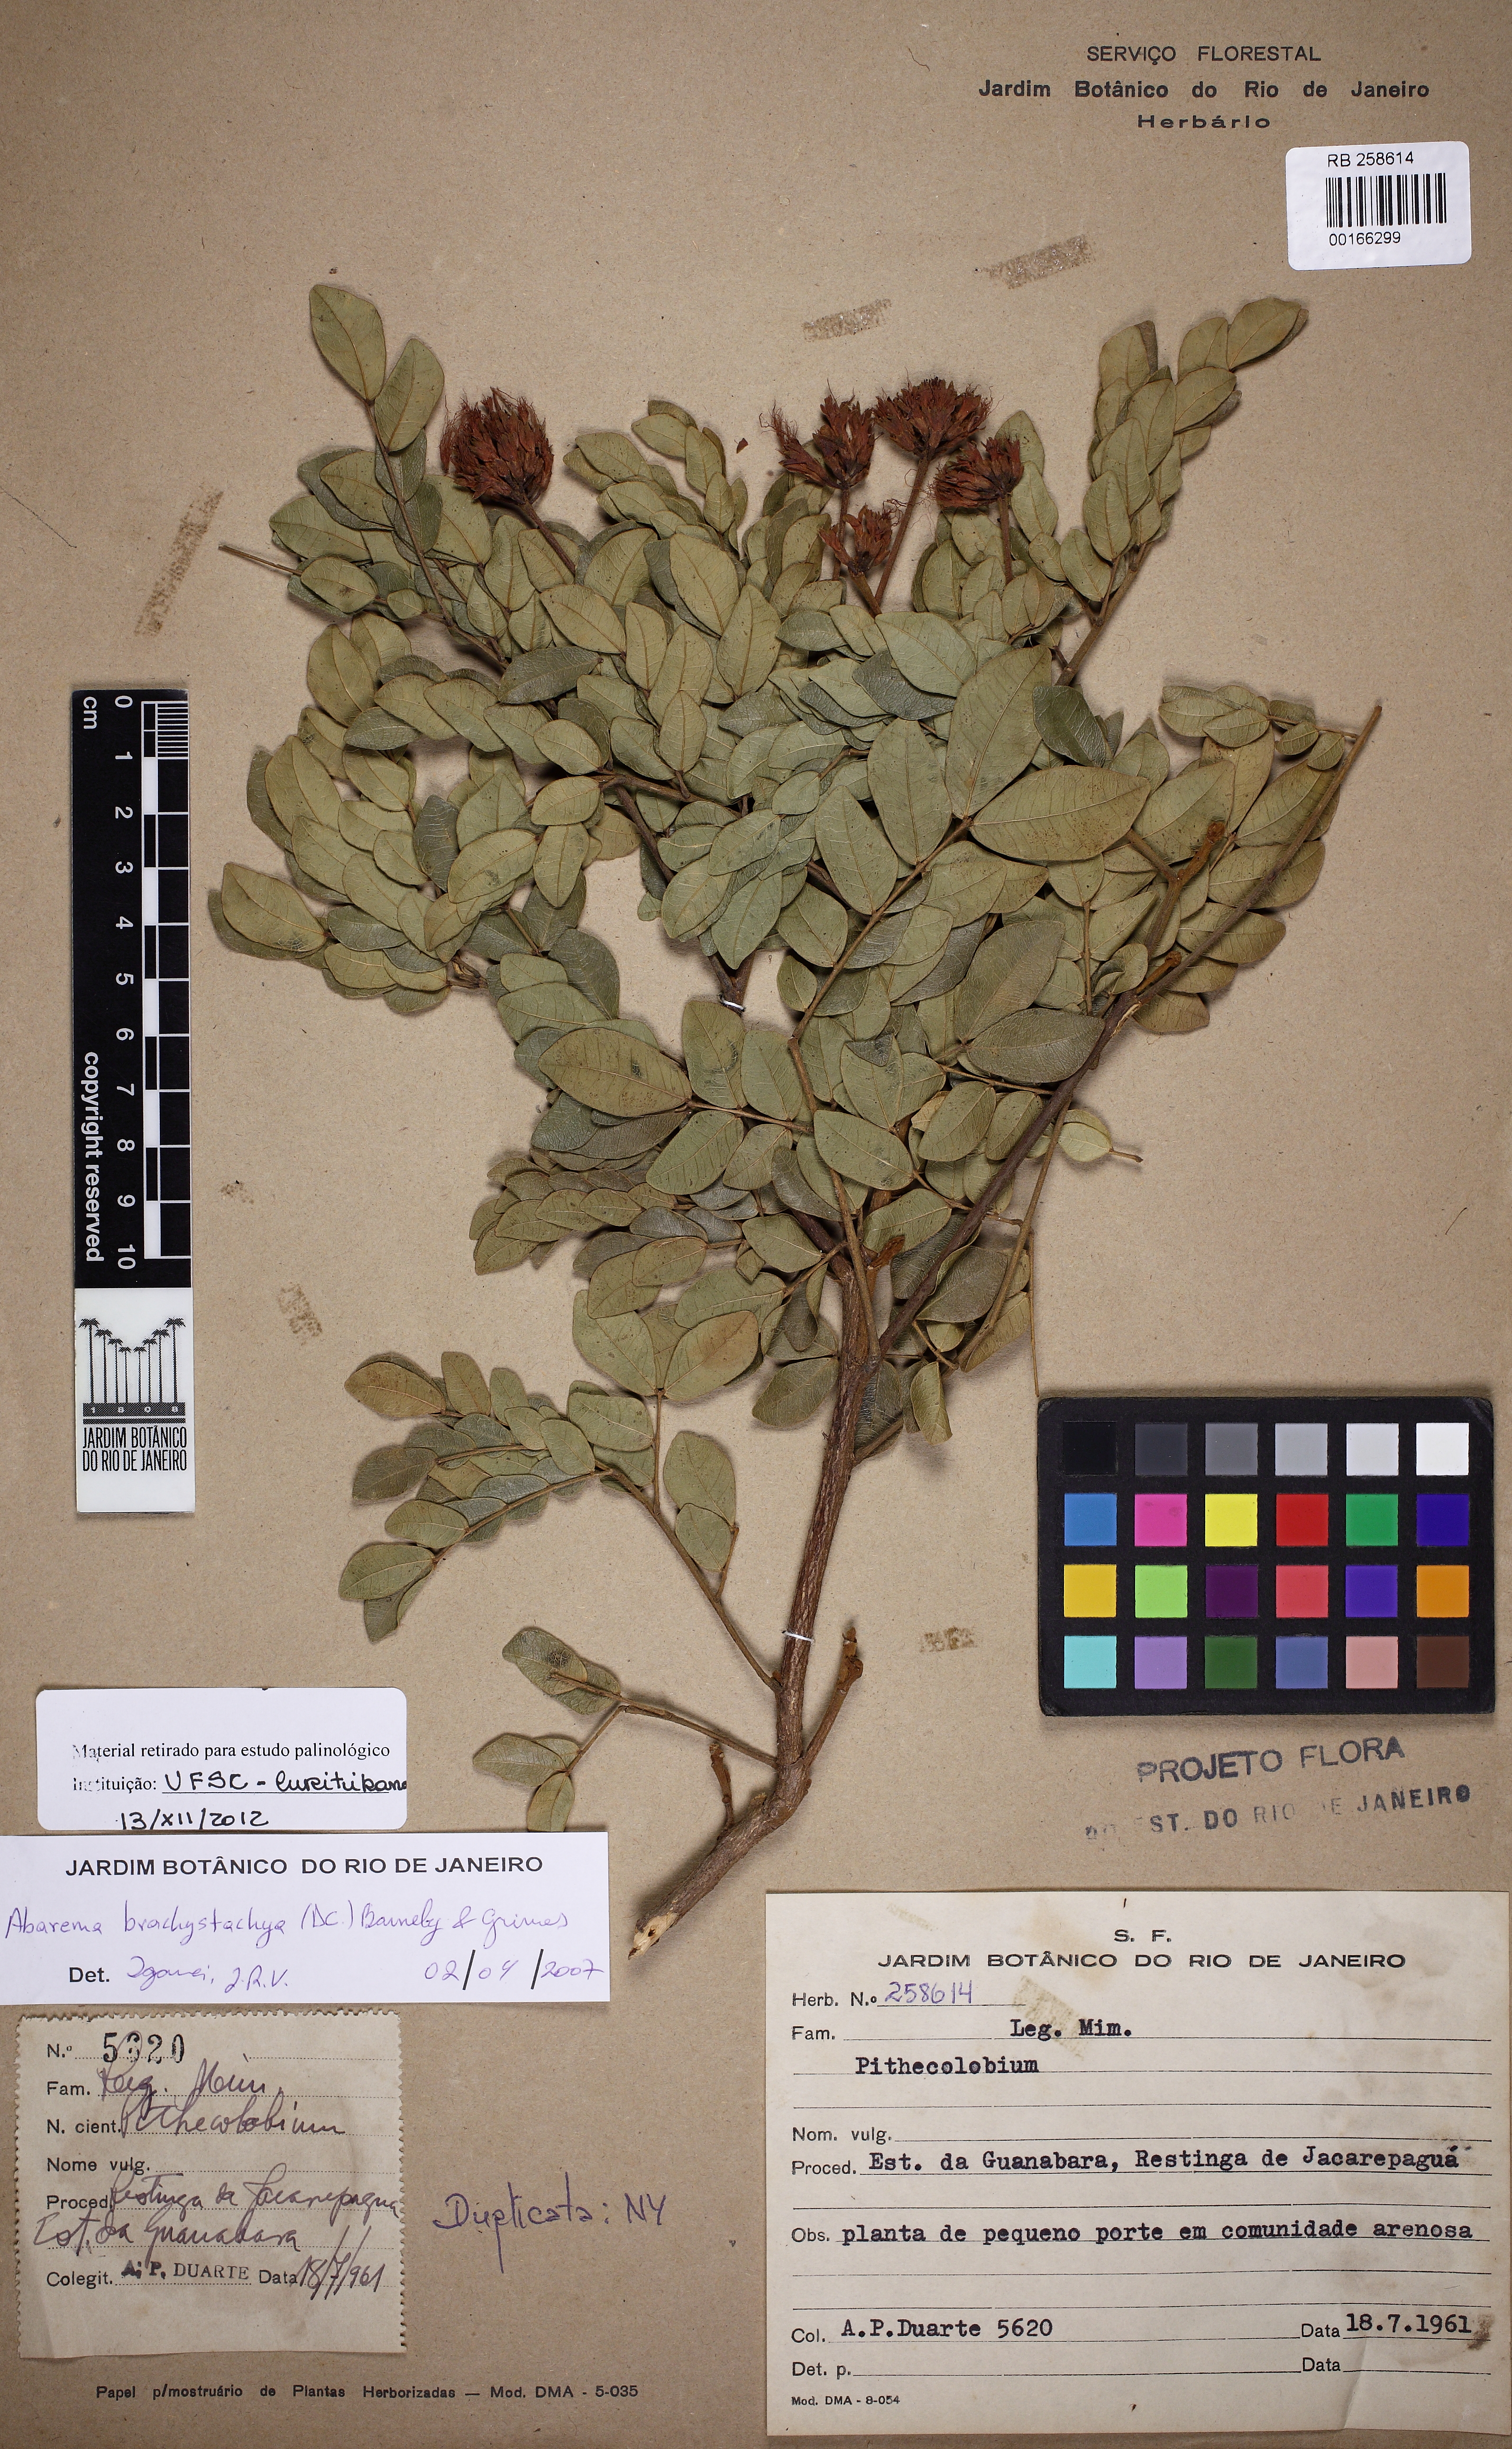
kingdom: Plantae
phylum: Tracheophyta
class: Magnoliopsida
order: Fabales
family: Fabaceae
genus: Abarema
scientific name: Abarema
